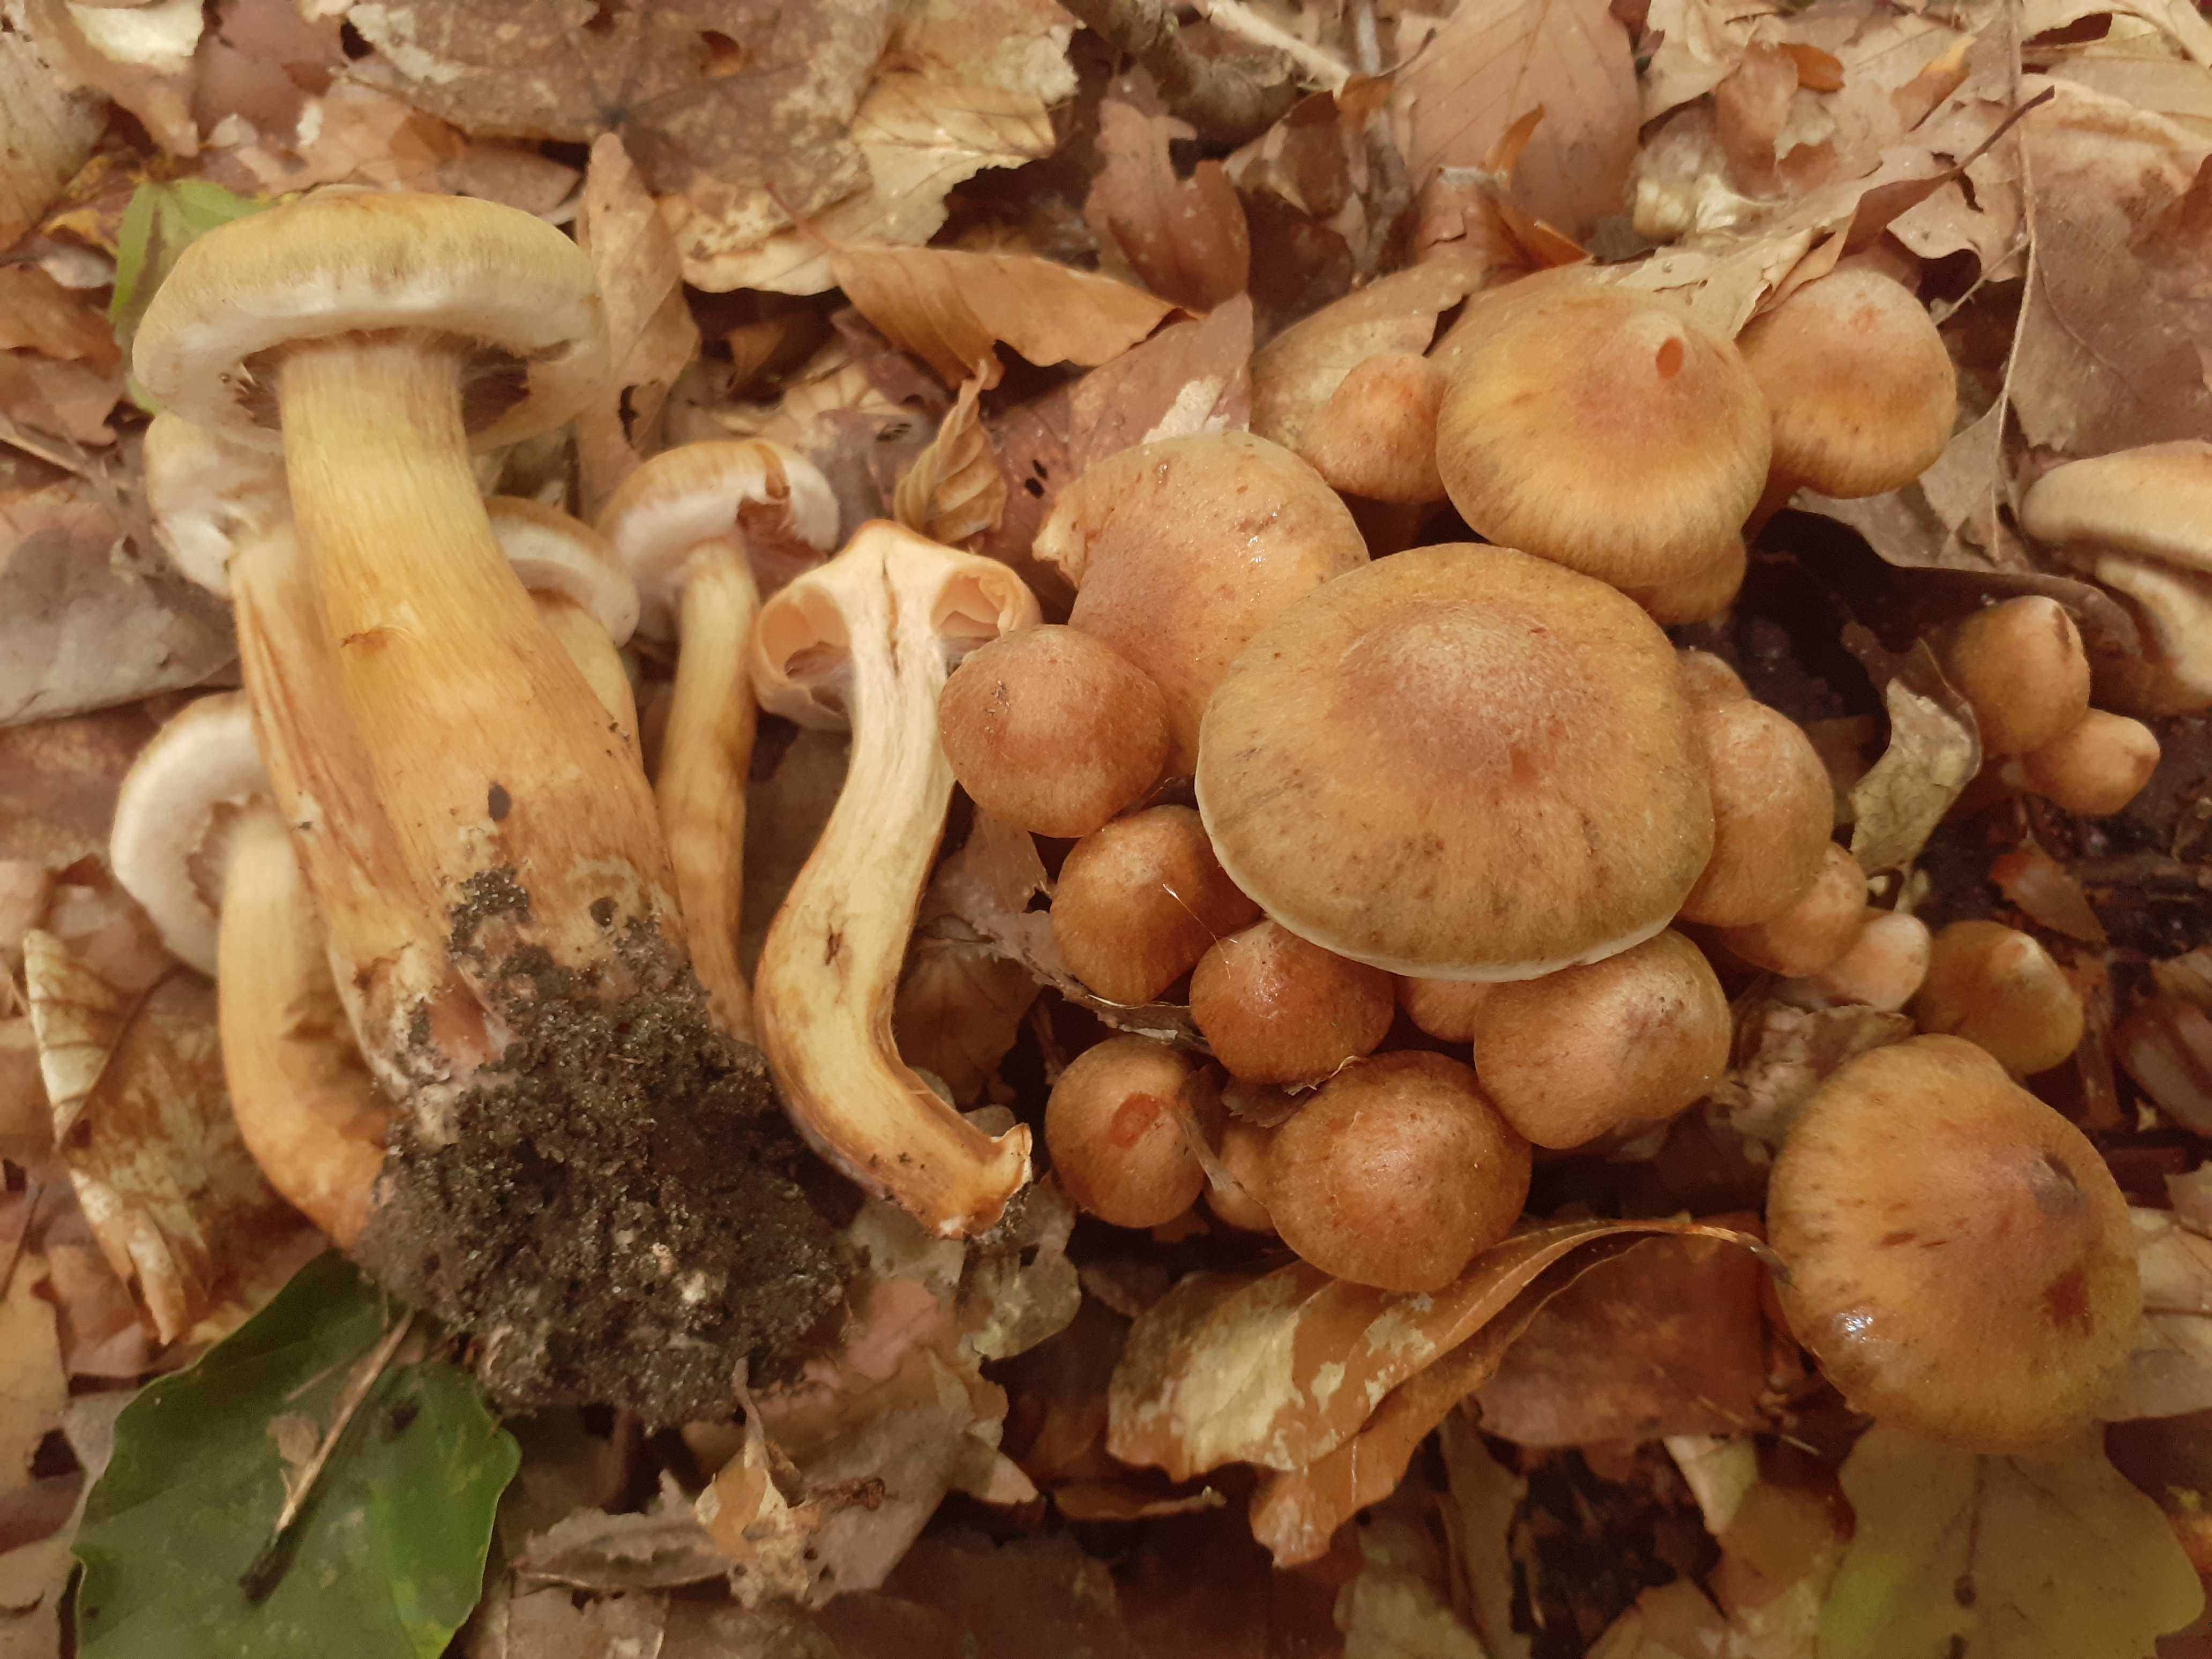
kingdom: Fungi
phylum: Basidiomycota
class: Agaricomycetes
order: Agaricales
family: Cortinariaceae
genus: Cortinarius
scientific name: Cortinarius roseonudipes
